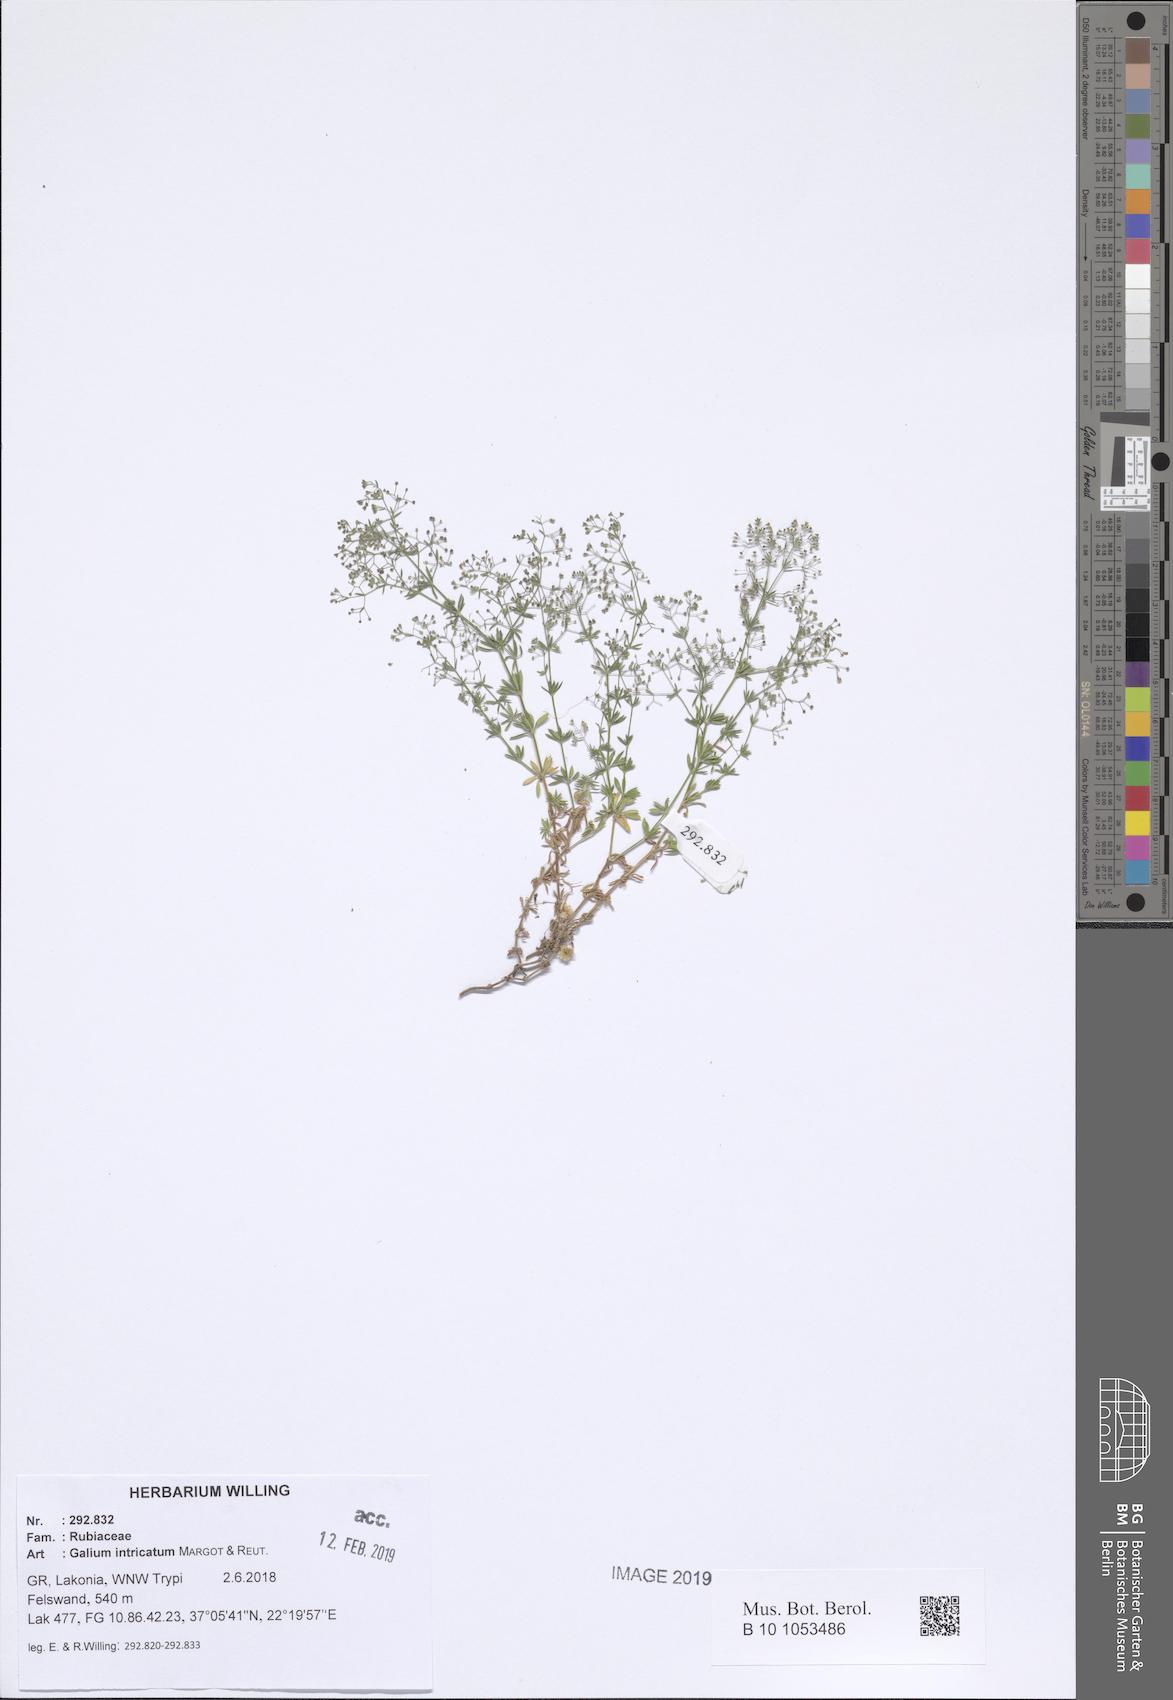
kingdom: Plantae
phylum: Tracheophyta
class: Magnoliopsida
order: Gentianales
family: Rubiaceae
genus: Galium
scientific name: Galium intricatum
